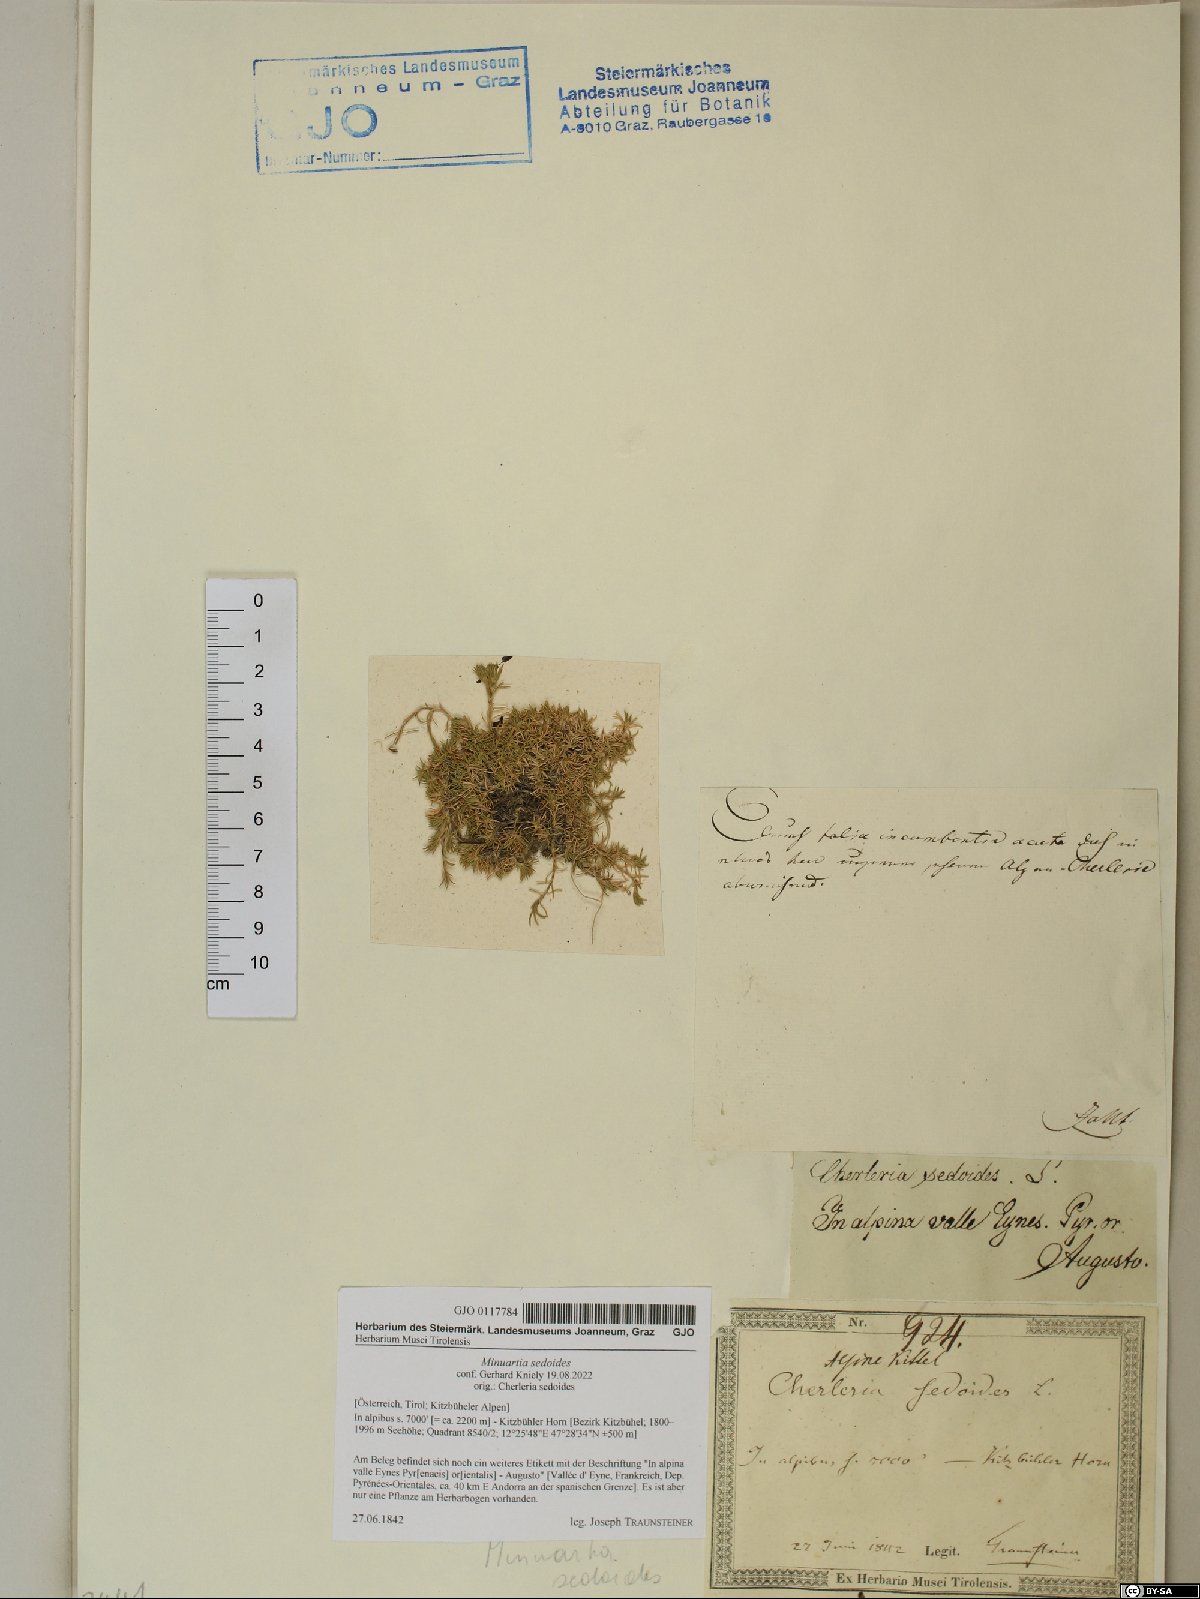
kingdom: Plantae
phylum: Tracheophyta
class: Magnoliopsida
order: Caryophyllales
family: Caryophyllaceae
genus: Cherleria
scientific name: Cherleria sedoides
